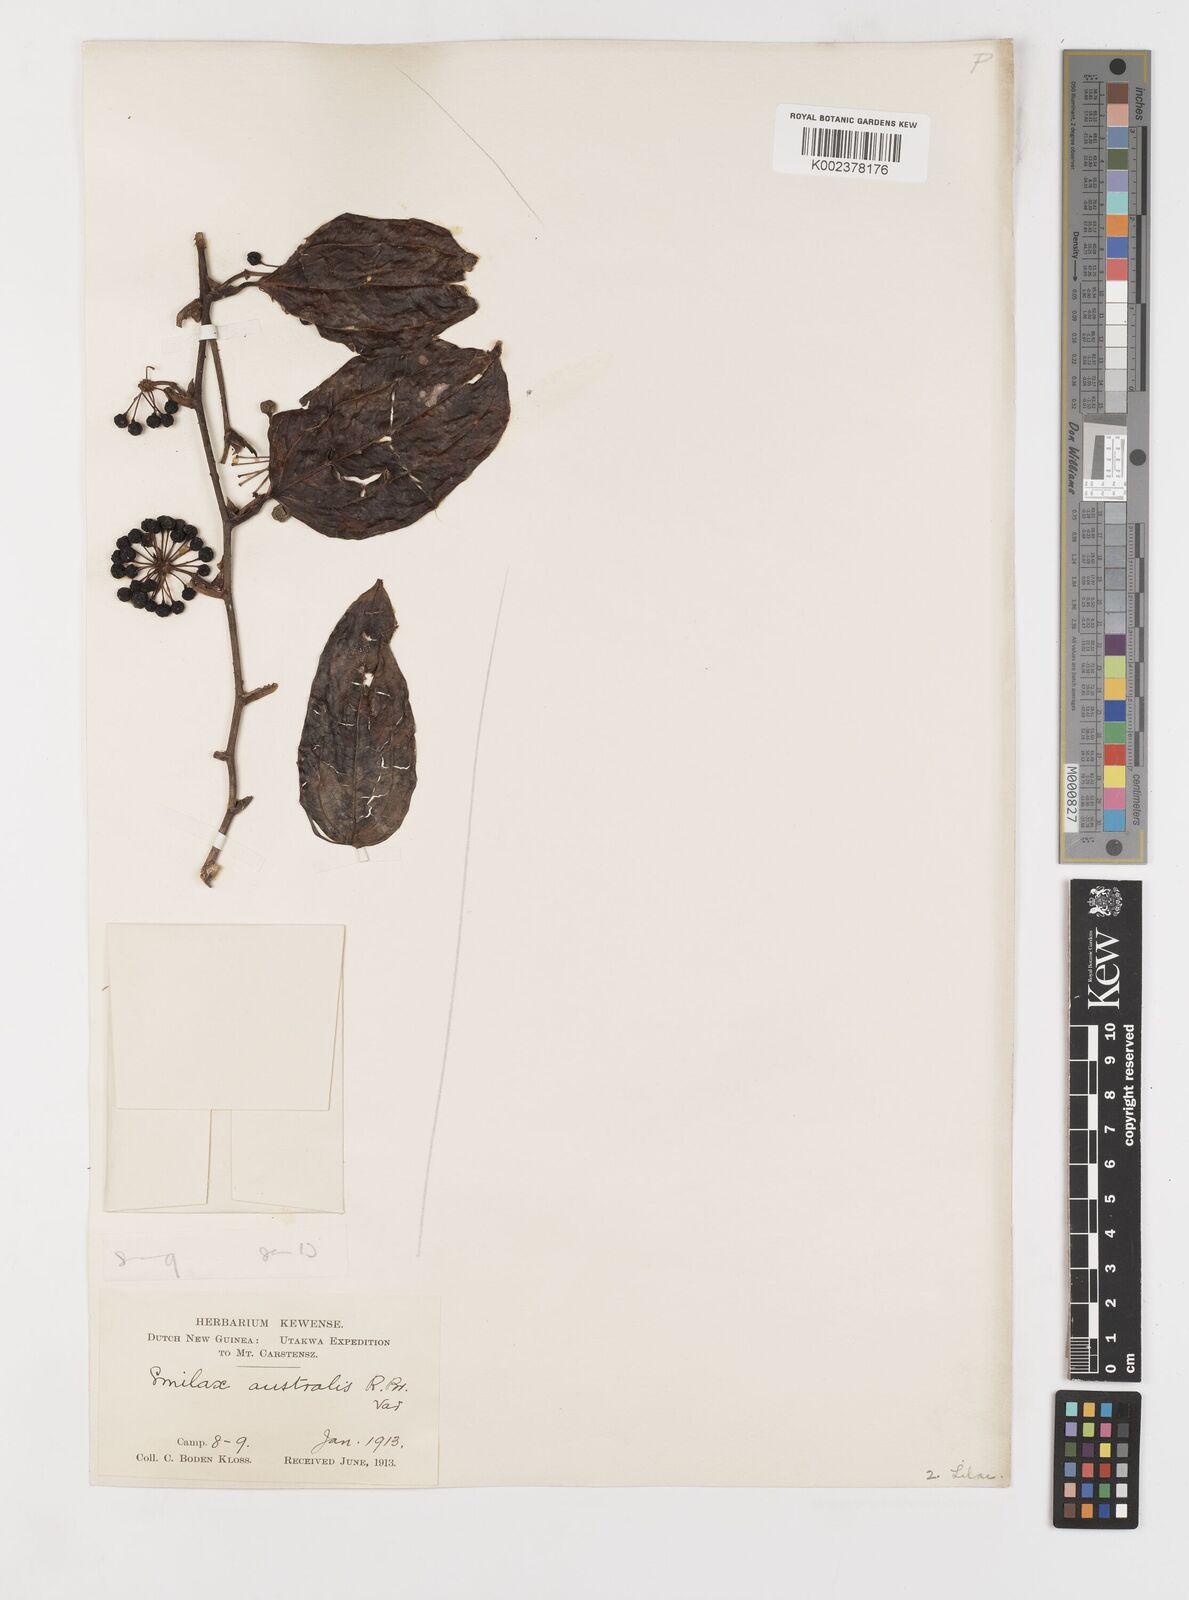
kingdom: Plantae
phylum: Tracheophyta
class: Liliopsida
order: Liliales
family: Smilacaceae
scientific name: Smilacaceae
